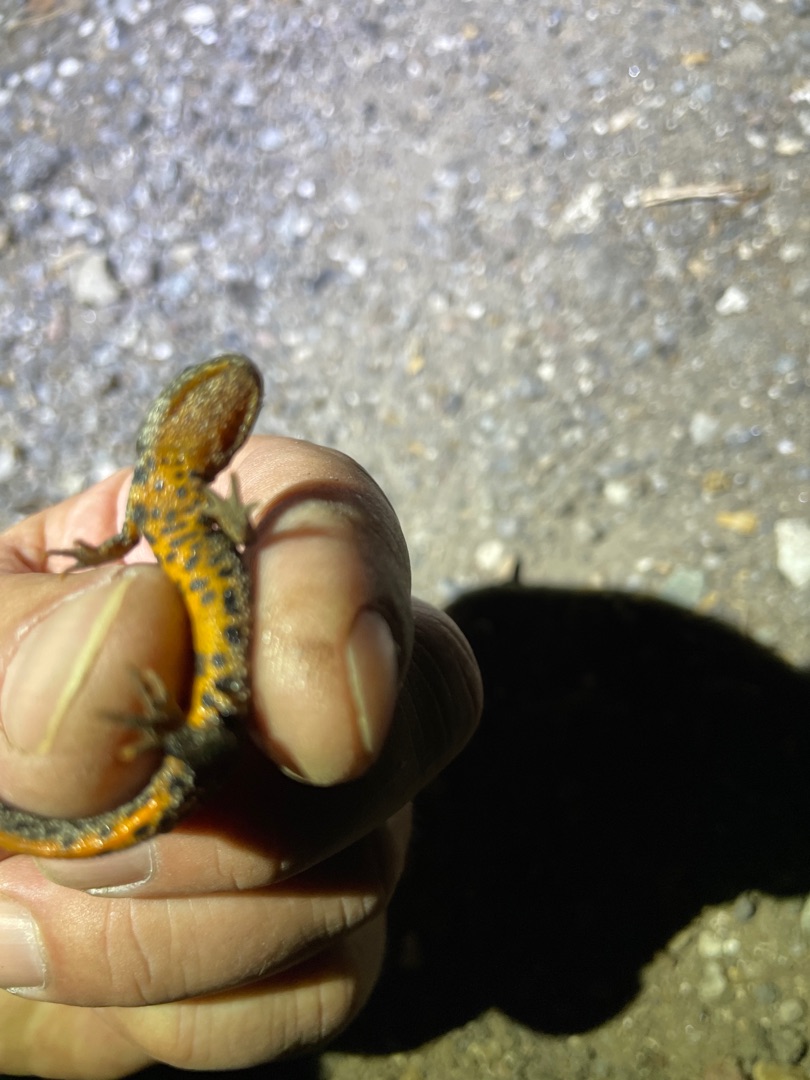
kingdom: Animalia
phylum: Chordata
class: Amphibia
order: Caudata
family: Salamandridae
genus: Triturus
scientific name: Triturus cristatus
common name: Stor vandsalamander
